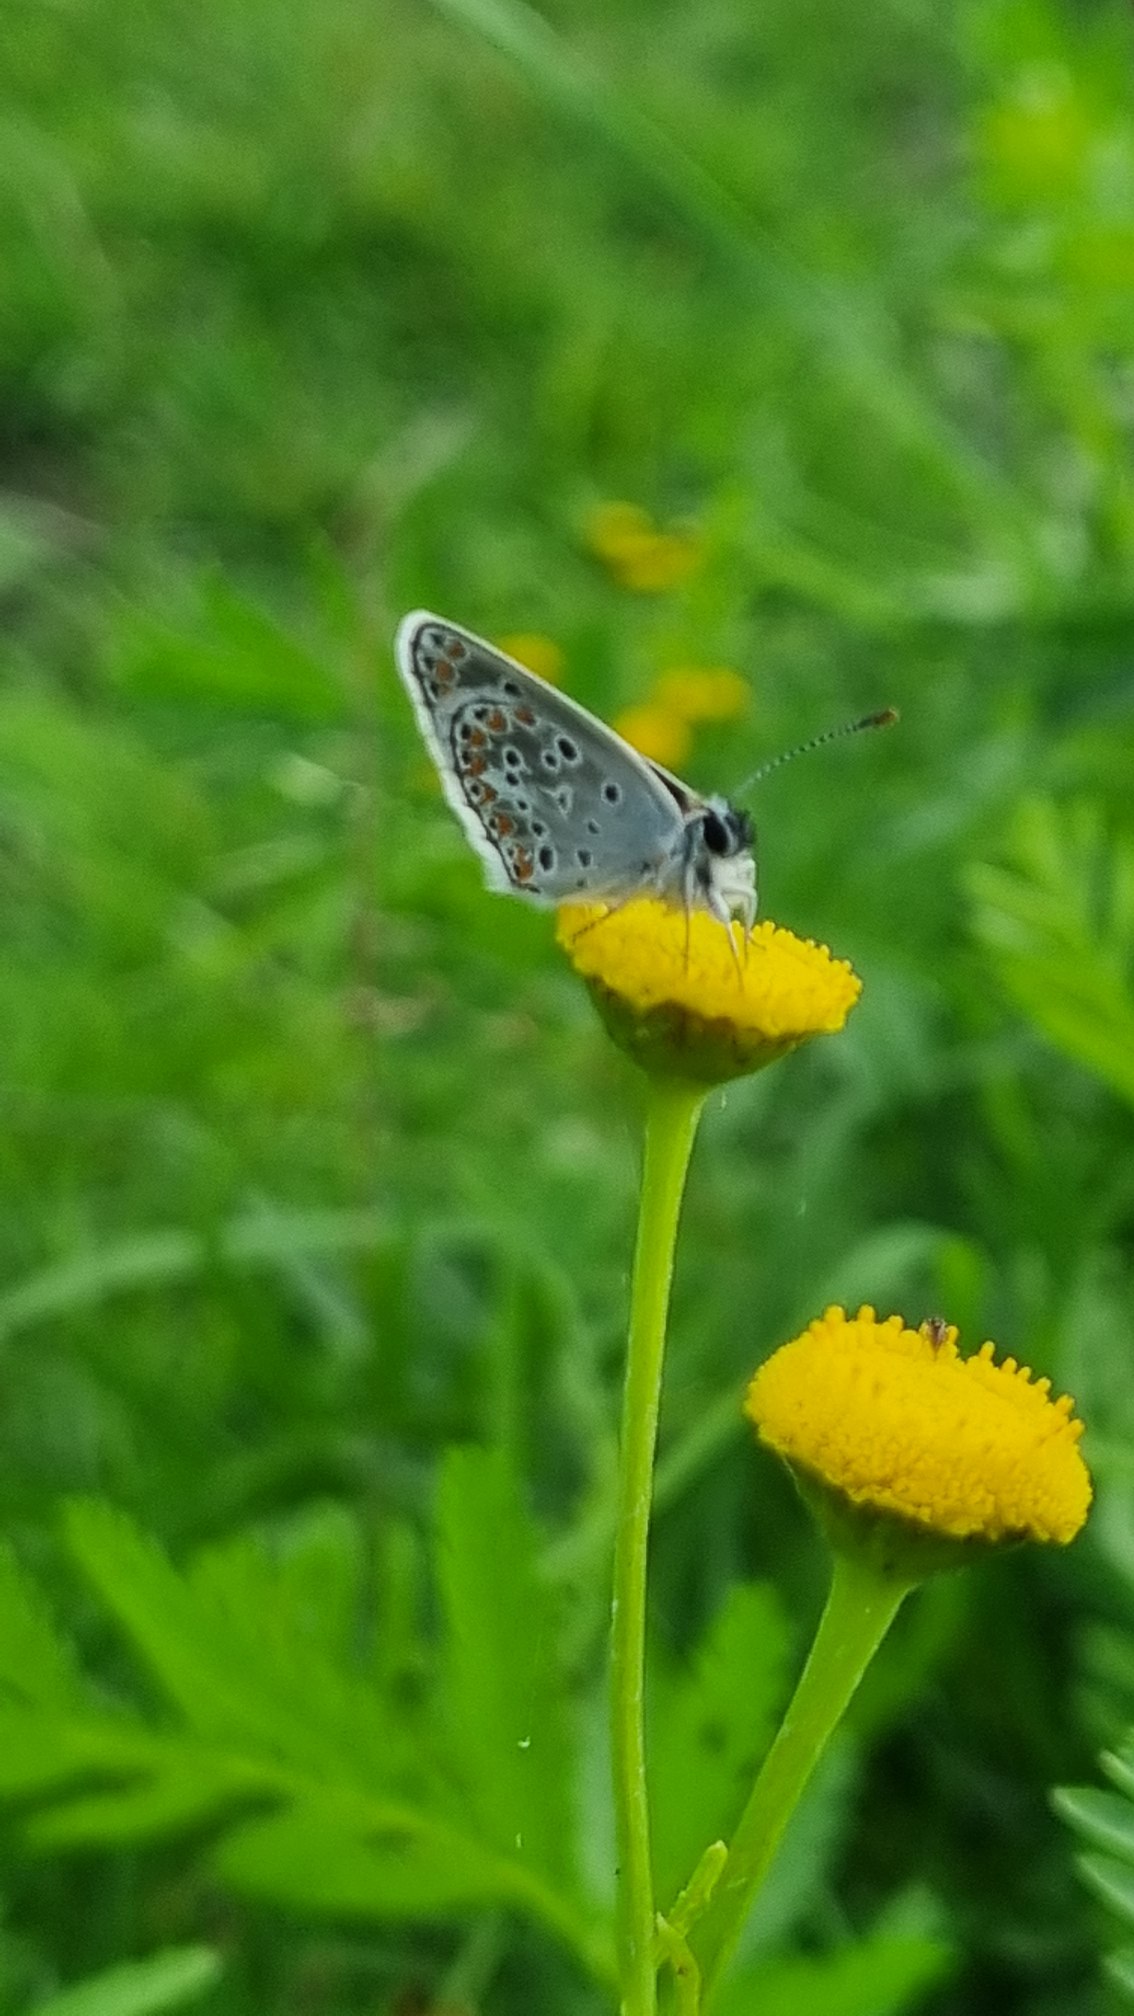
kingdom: Animalia
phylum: Arthropoda
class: Insecta
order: Lepidoptera
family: Lycaenidae
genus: Aricia
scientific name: Aricia agestis
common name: Rødplettet blåfugl
